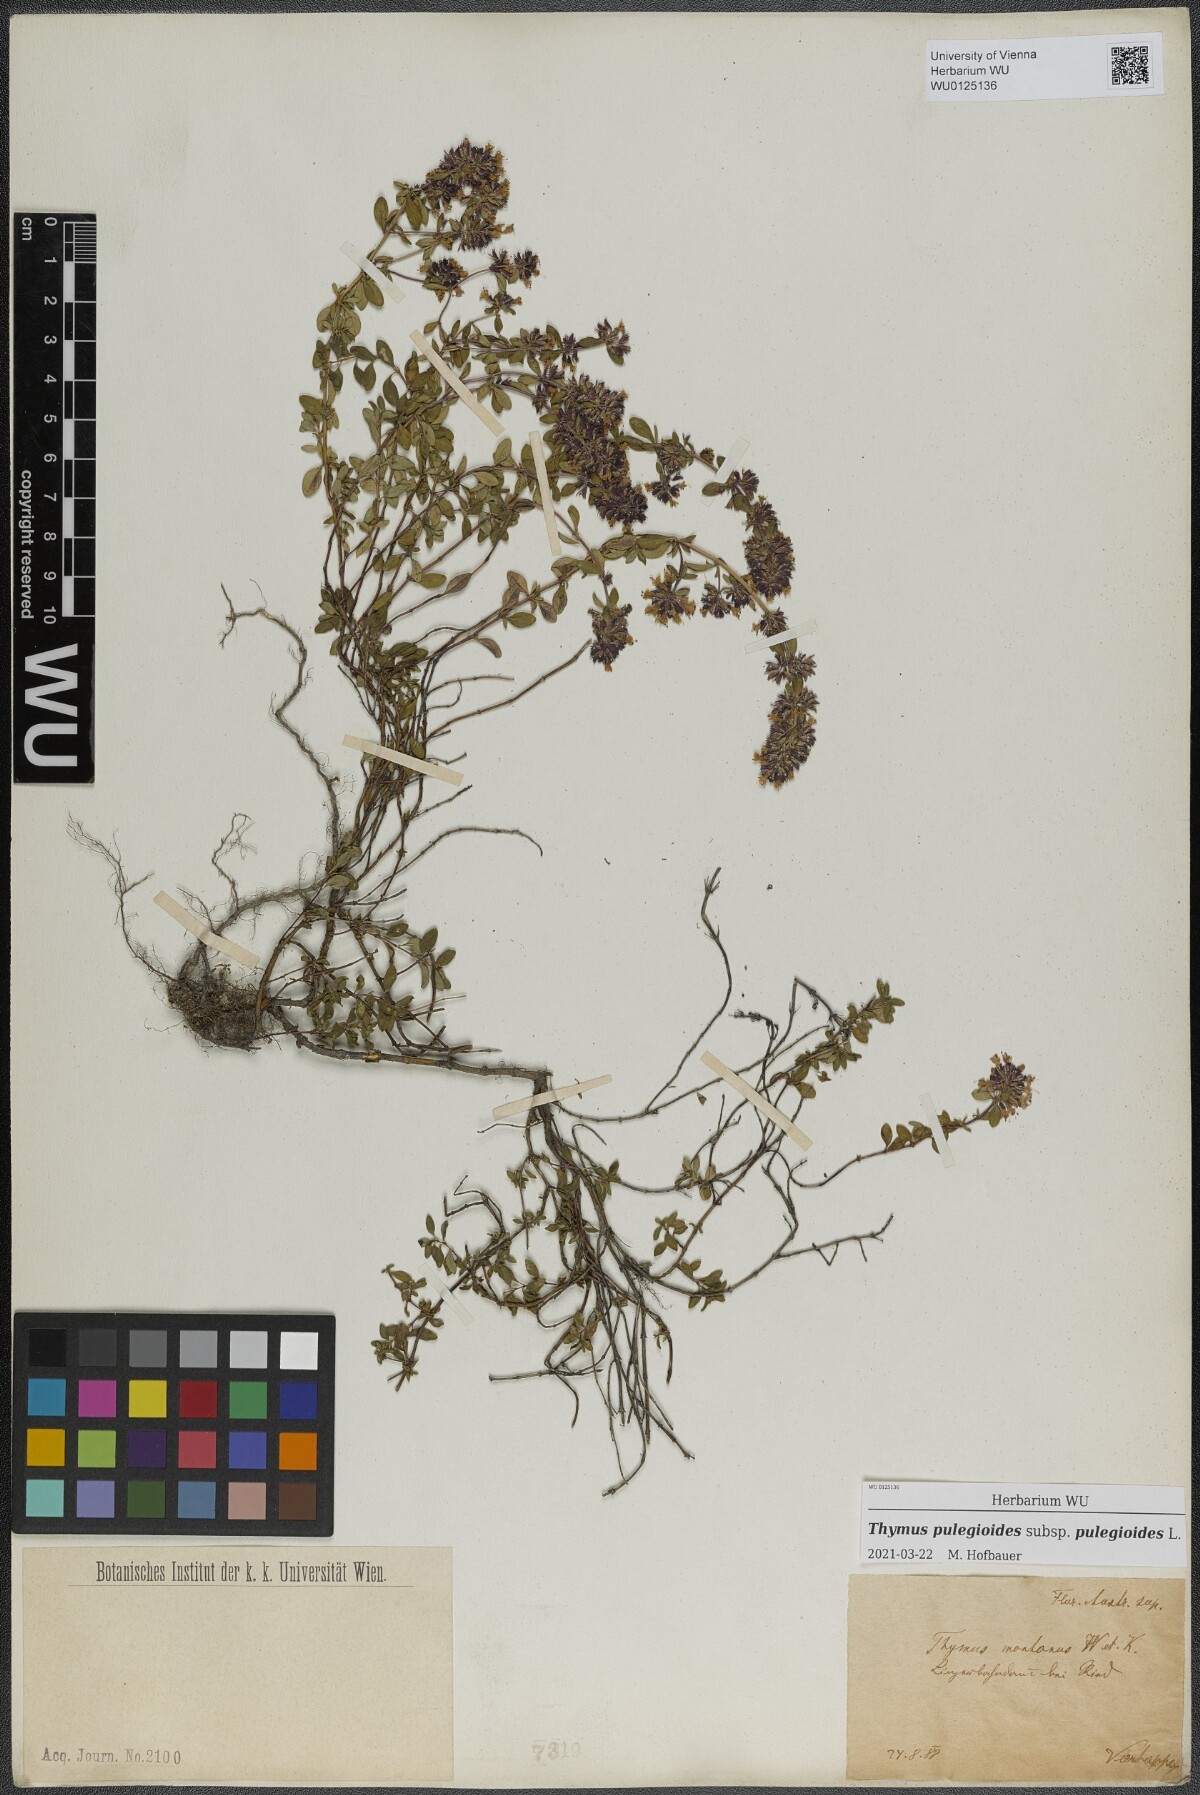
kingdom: Plantae
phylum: Tracheophyta
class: Magnoliopsida
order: Lamiales
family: Lamiaceae
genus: Thymus
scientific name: Thymus pulegioides
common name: Large thyme
